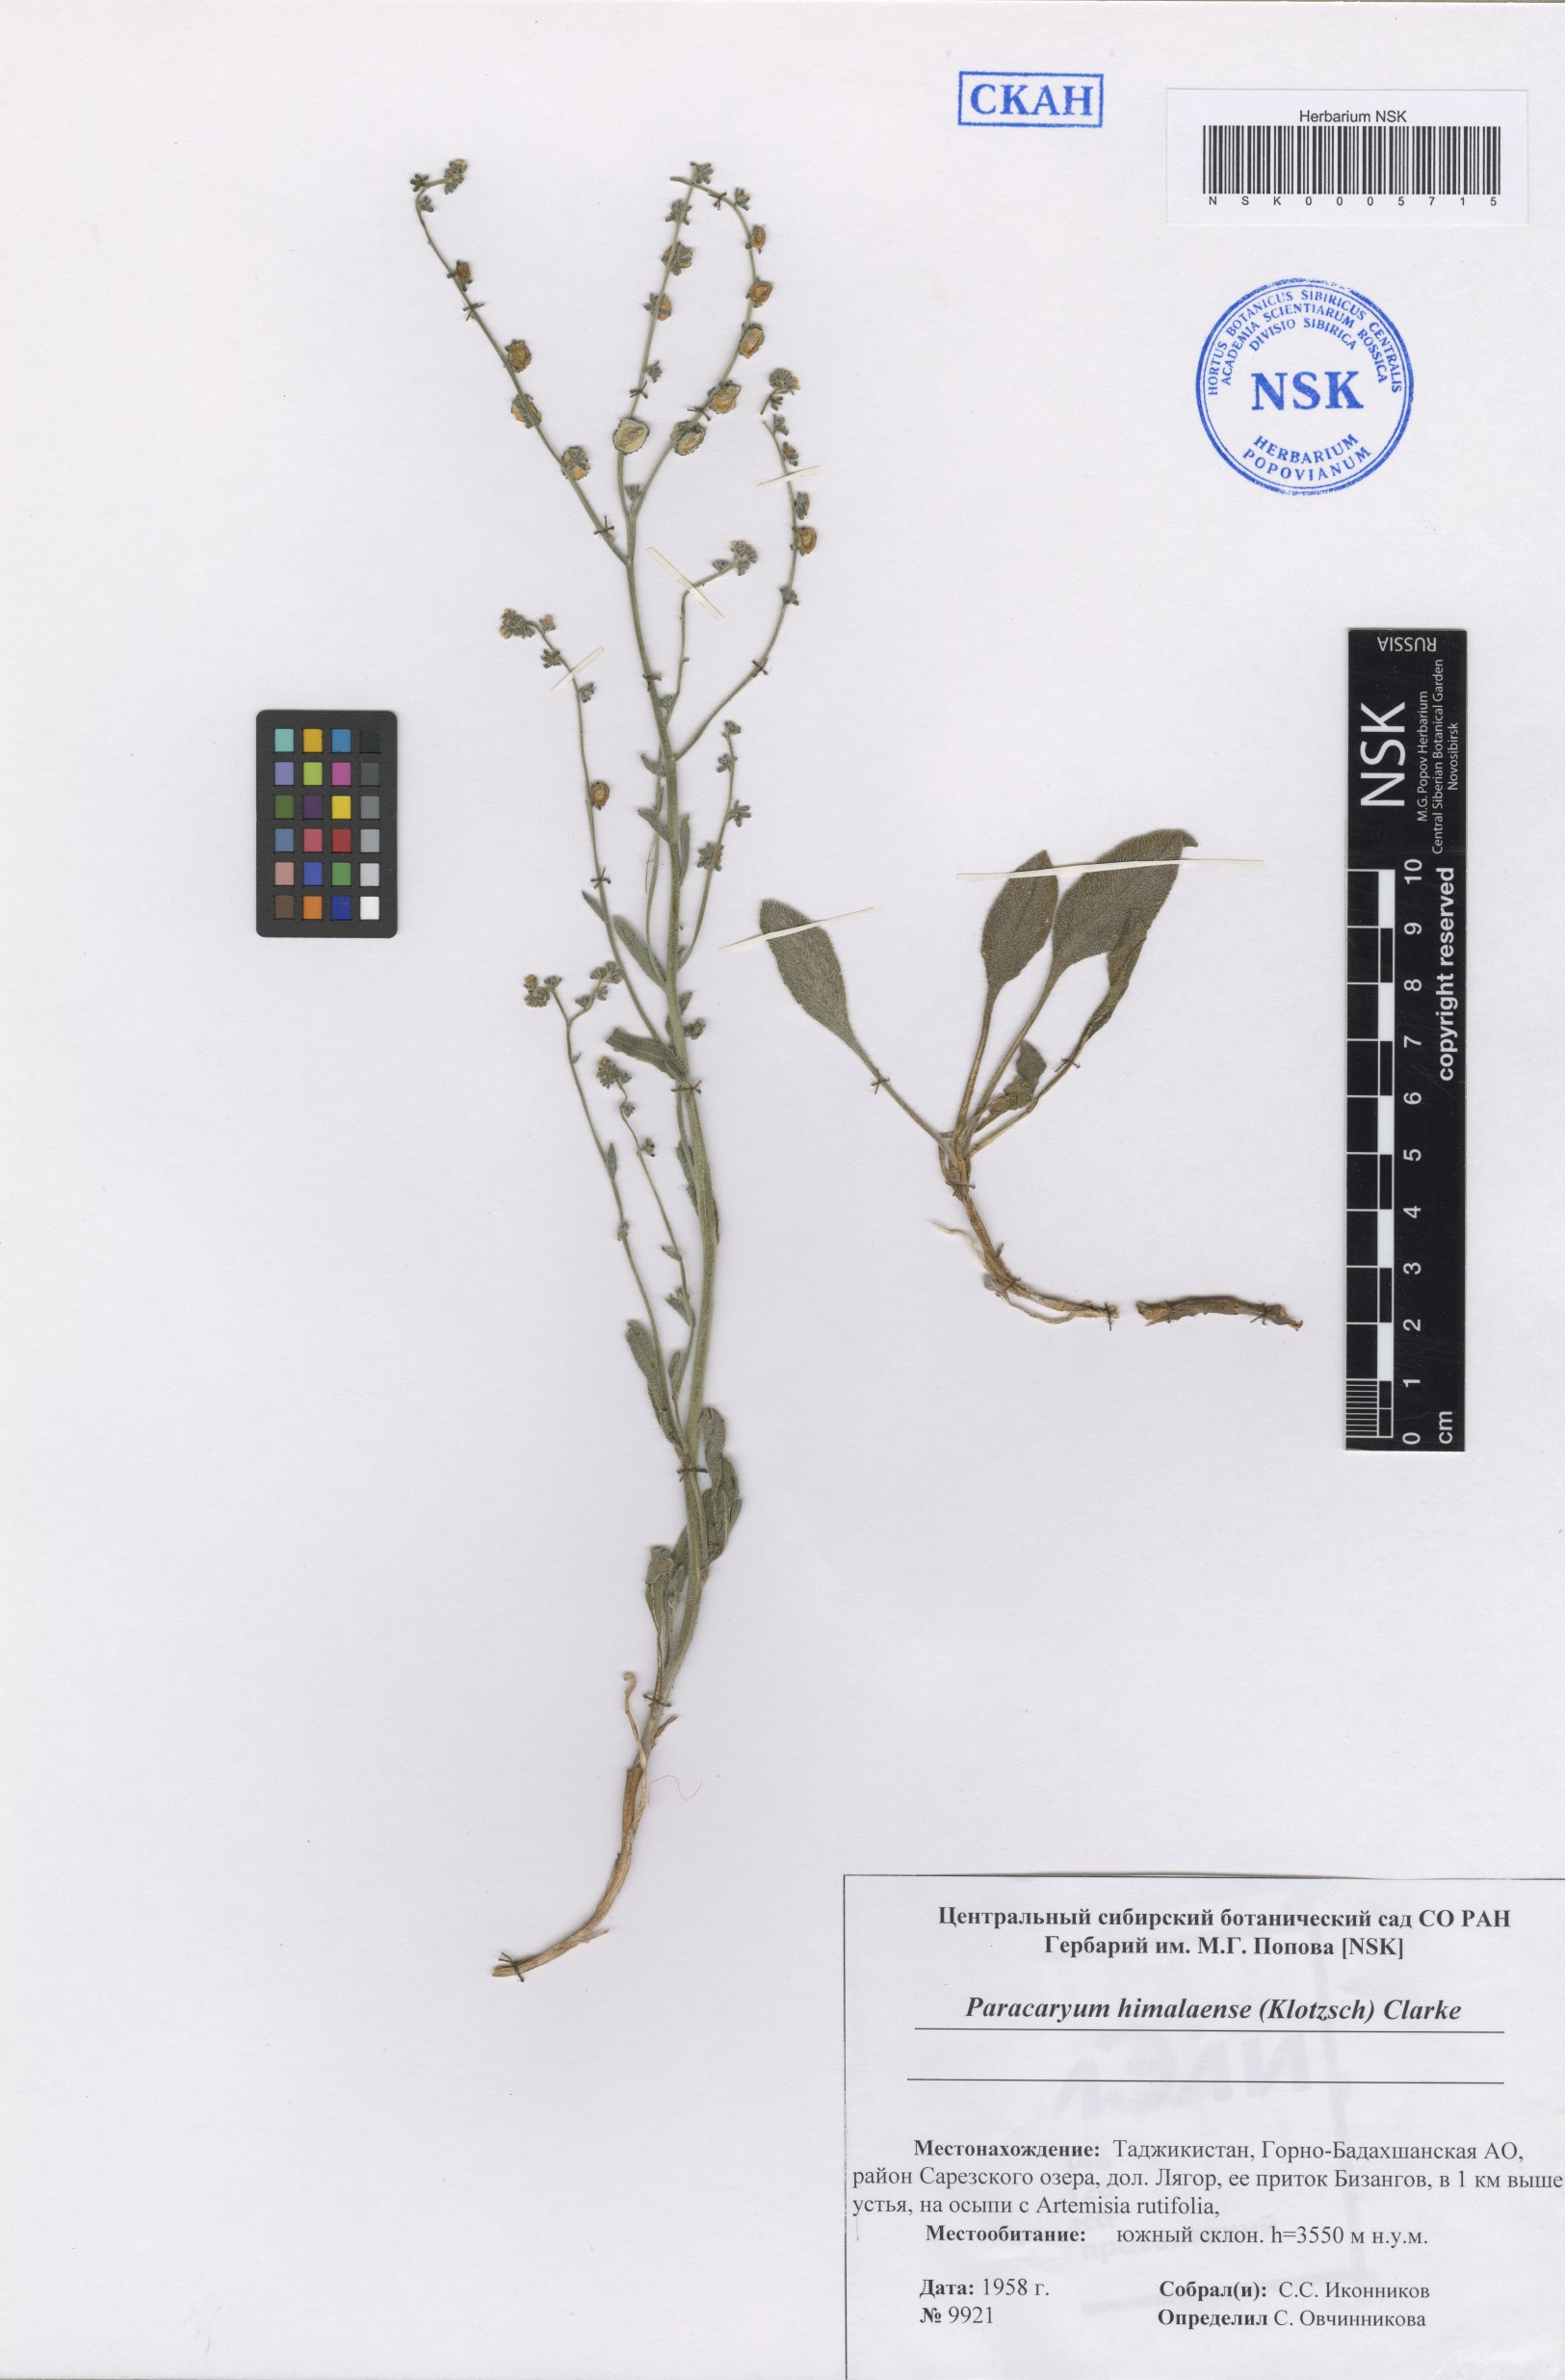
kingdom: Plantae
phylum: Tracheophyta
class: Magnoliopsida
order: Boraginales
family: Boraginaceae
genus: Paracaryum
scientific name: Paracaryum himalayense
